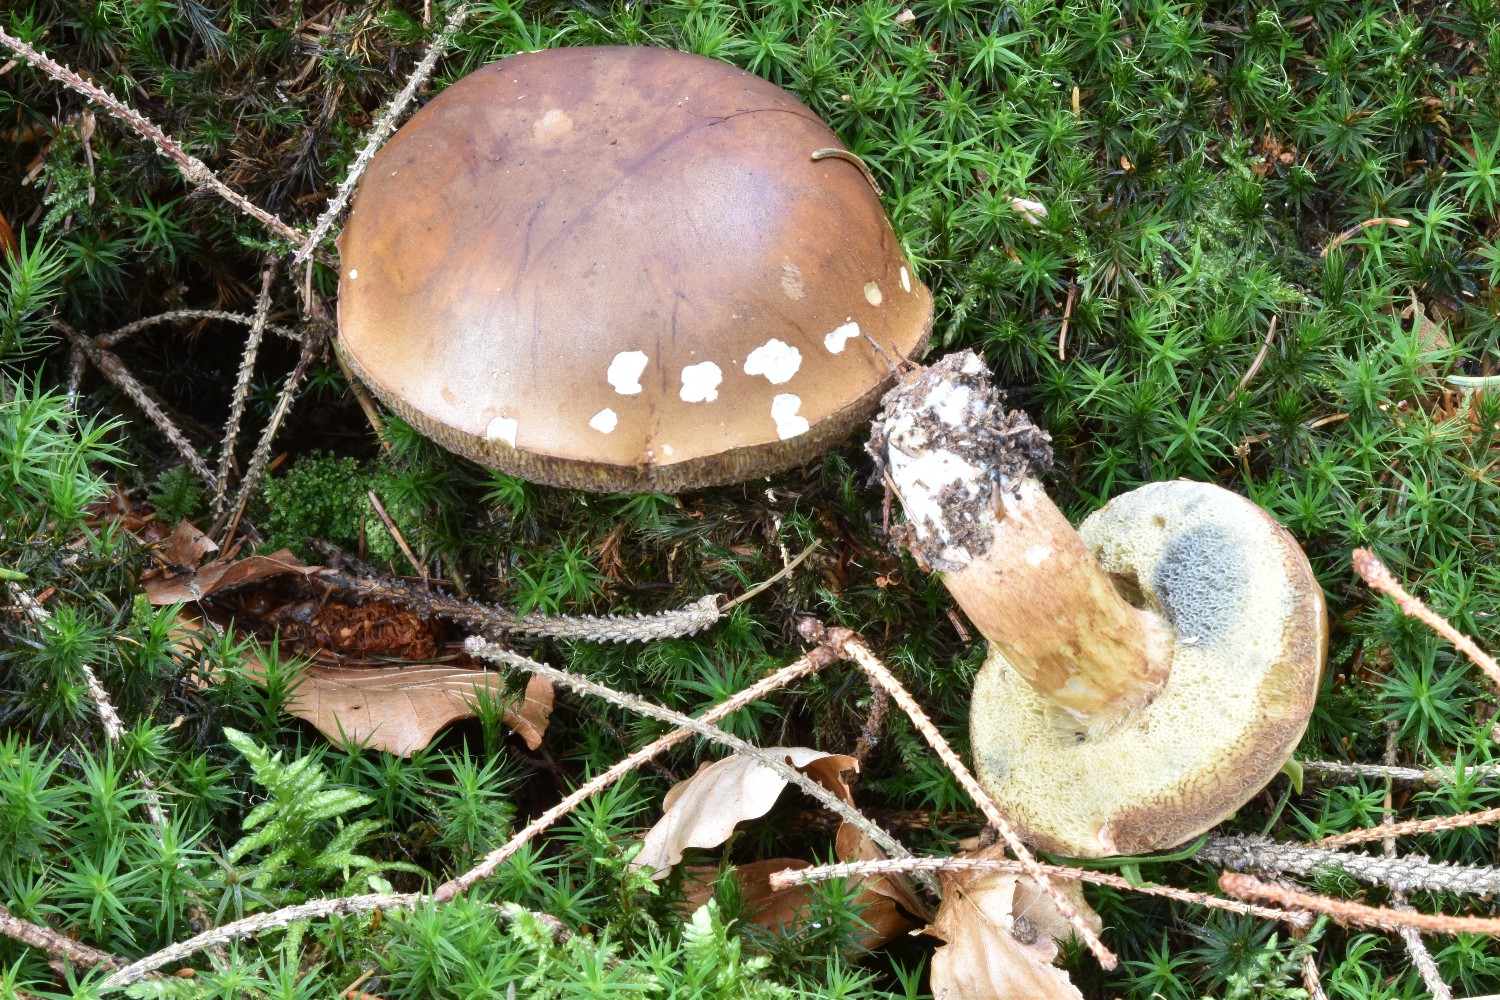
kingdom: Fungi
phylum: Basidiomycota
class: Agaricomycetes
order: Boletales
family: Boletaceae
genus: Imleria
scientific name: Imleria badia
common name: brunstokket rørhat
